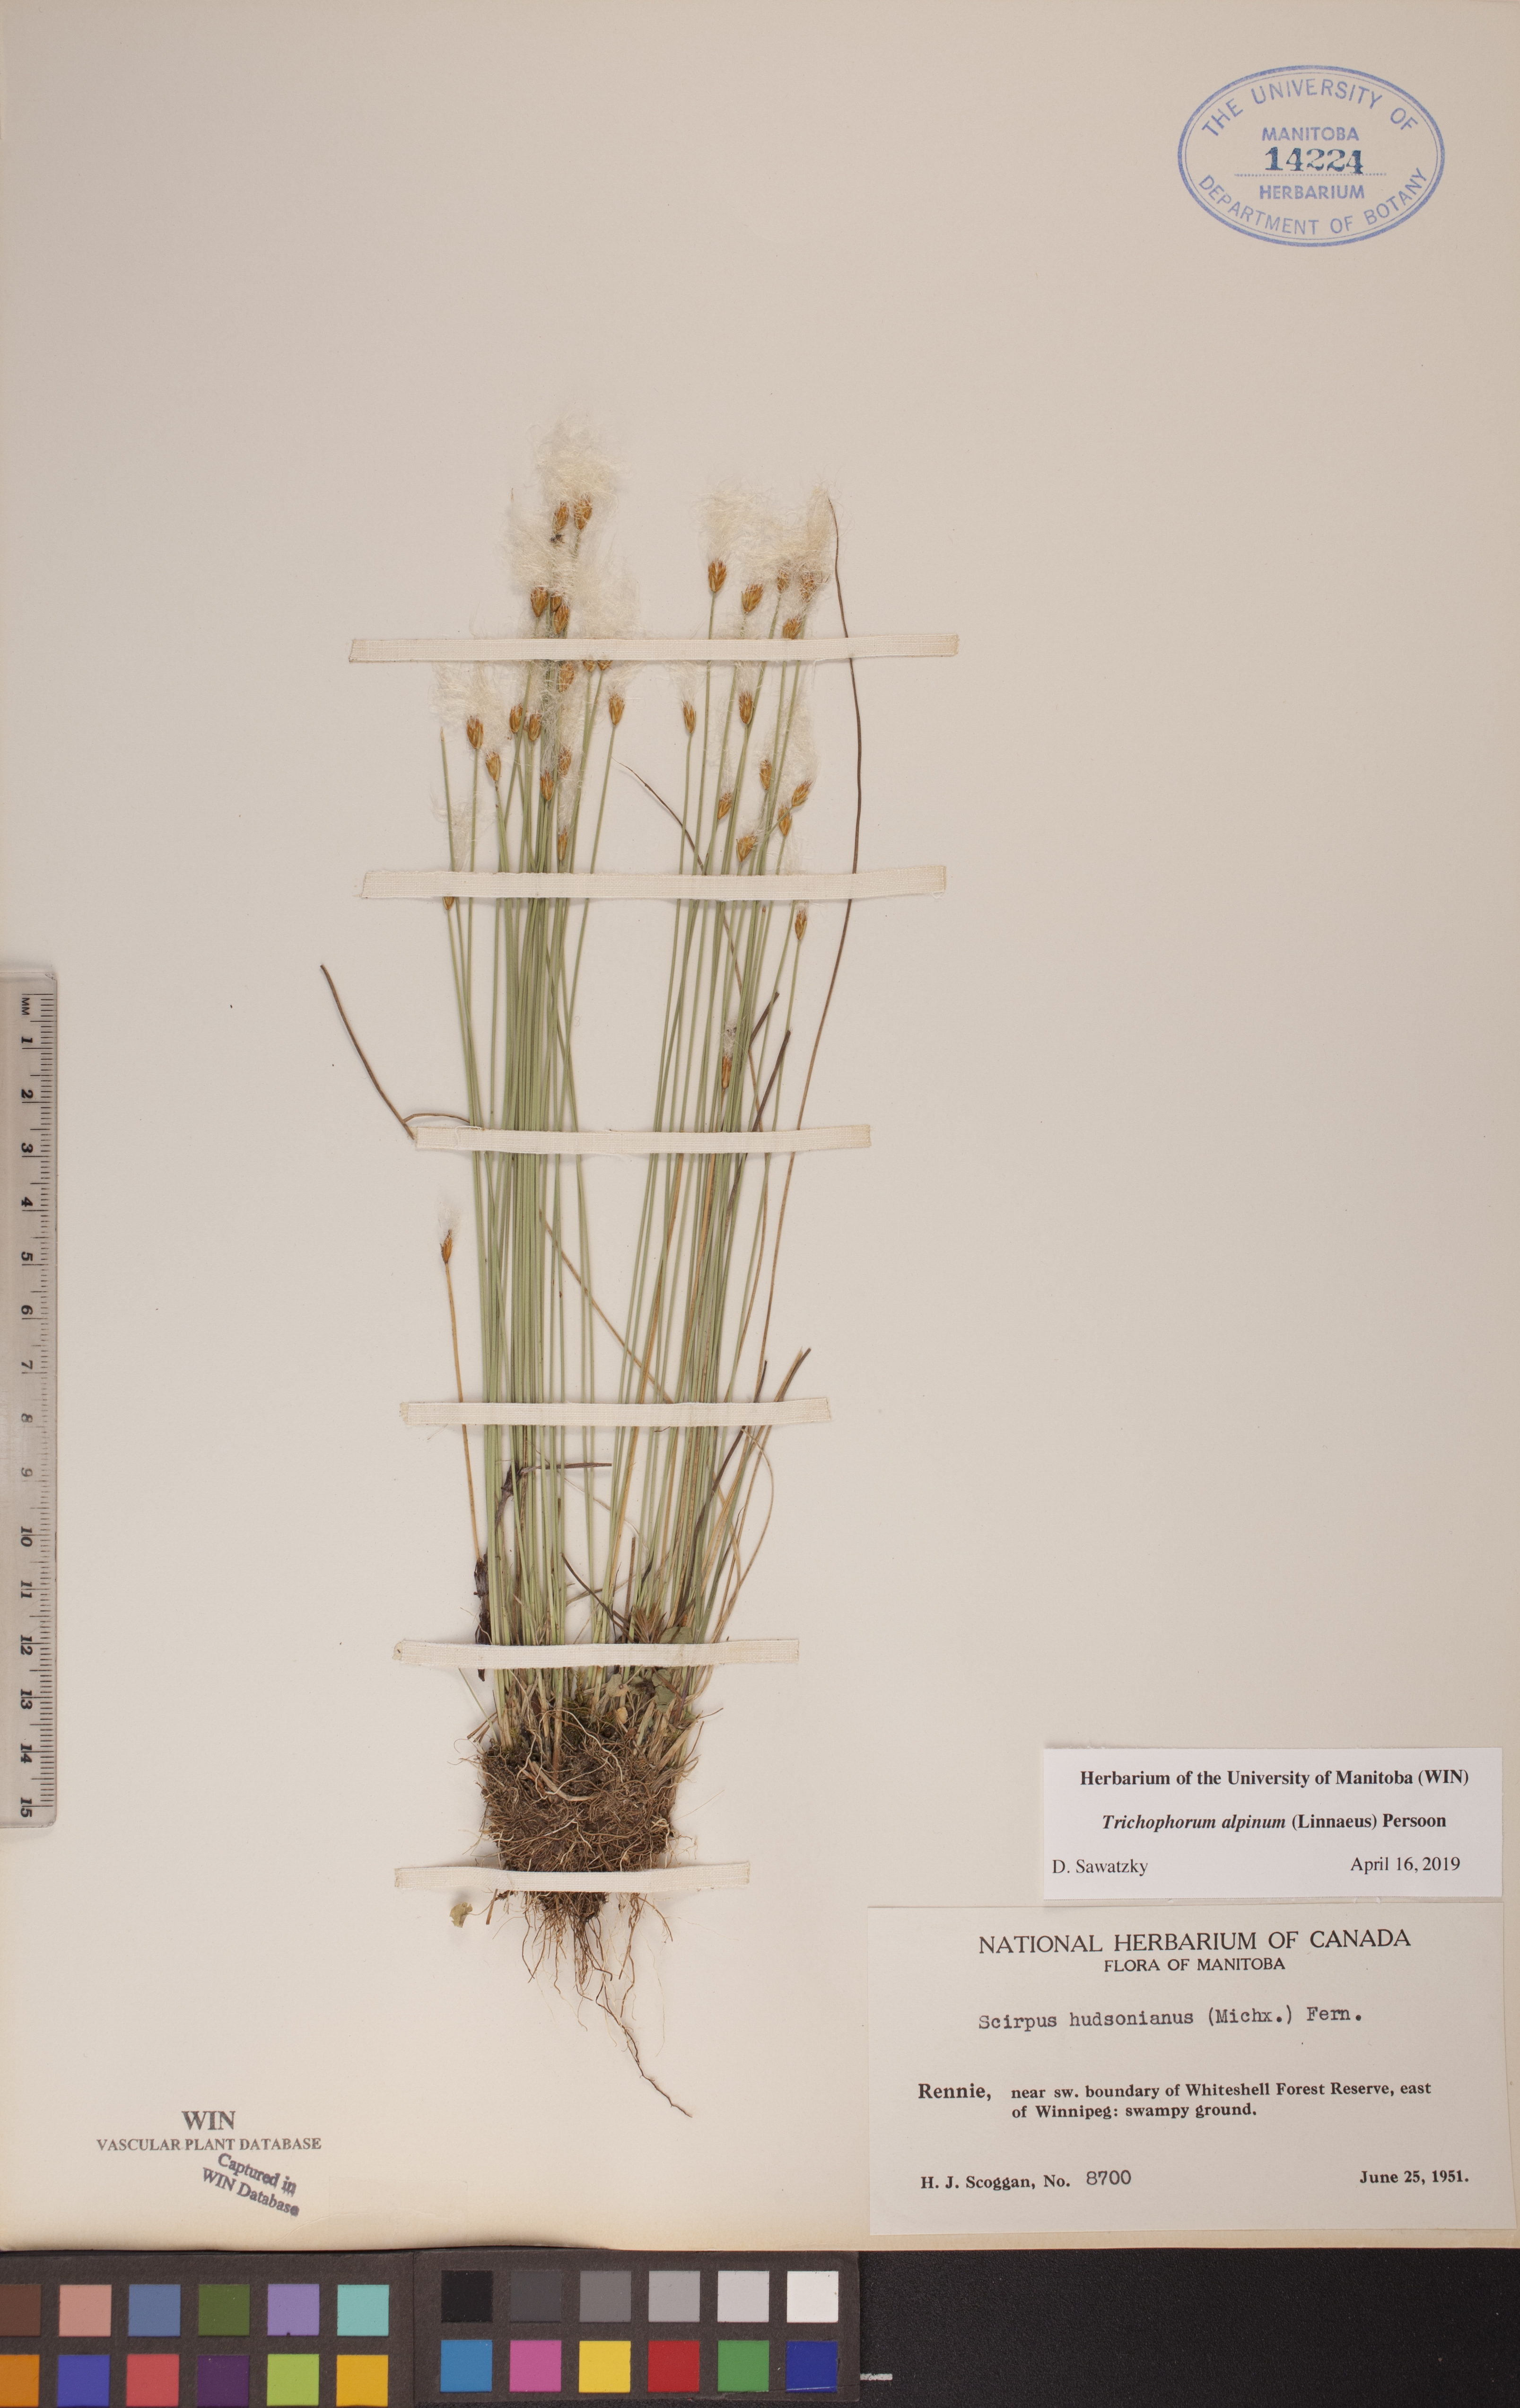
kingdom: Plantae
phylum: Tracheophyta
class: Liliopsida
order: Poales
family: Cyperaceae
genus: Trichophorum
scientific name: Trichophorum alpinum
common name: Alpine bulrush
